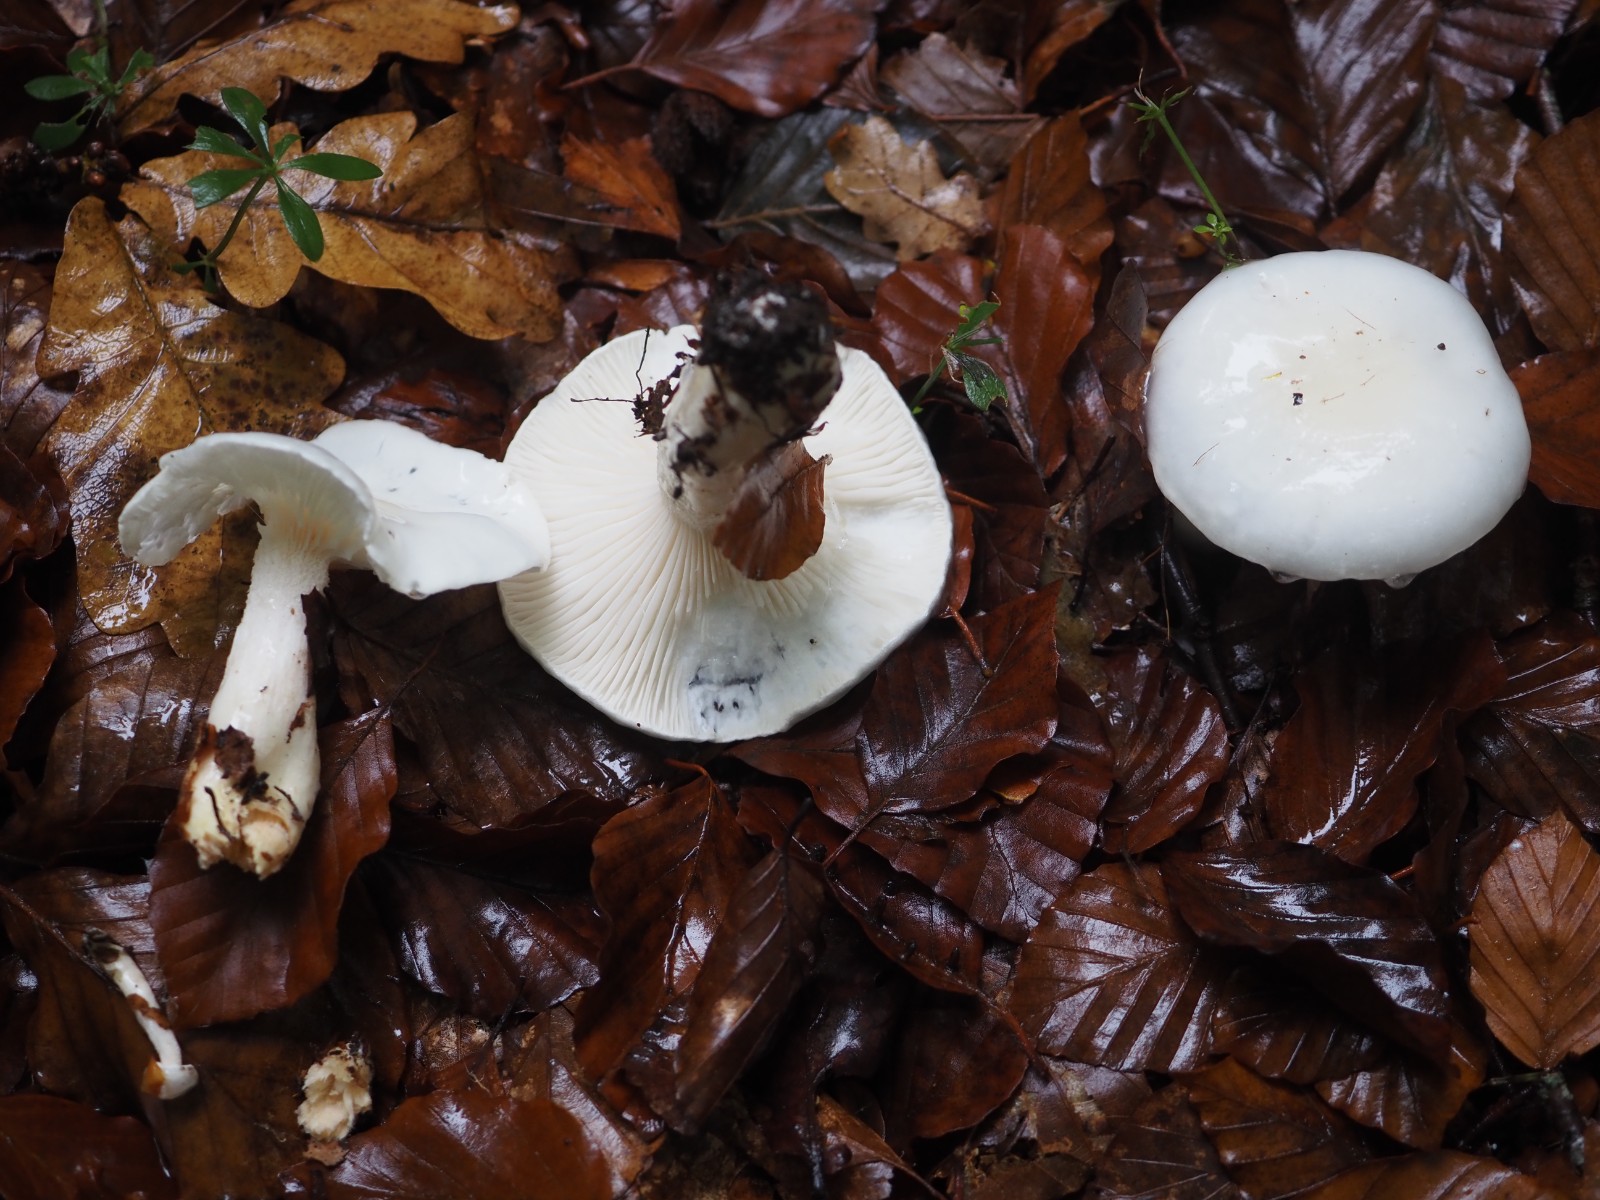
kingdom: Fungi
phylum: Basidiomycota
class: Agaricomycetes
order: Agaricales
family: Hygrophoraceae
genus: Hygrophorus
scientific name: Hygrophorus eburneus
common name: elfenbens-sneglehat
